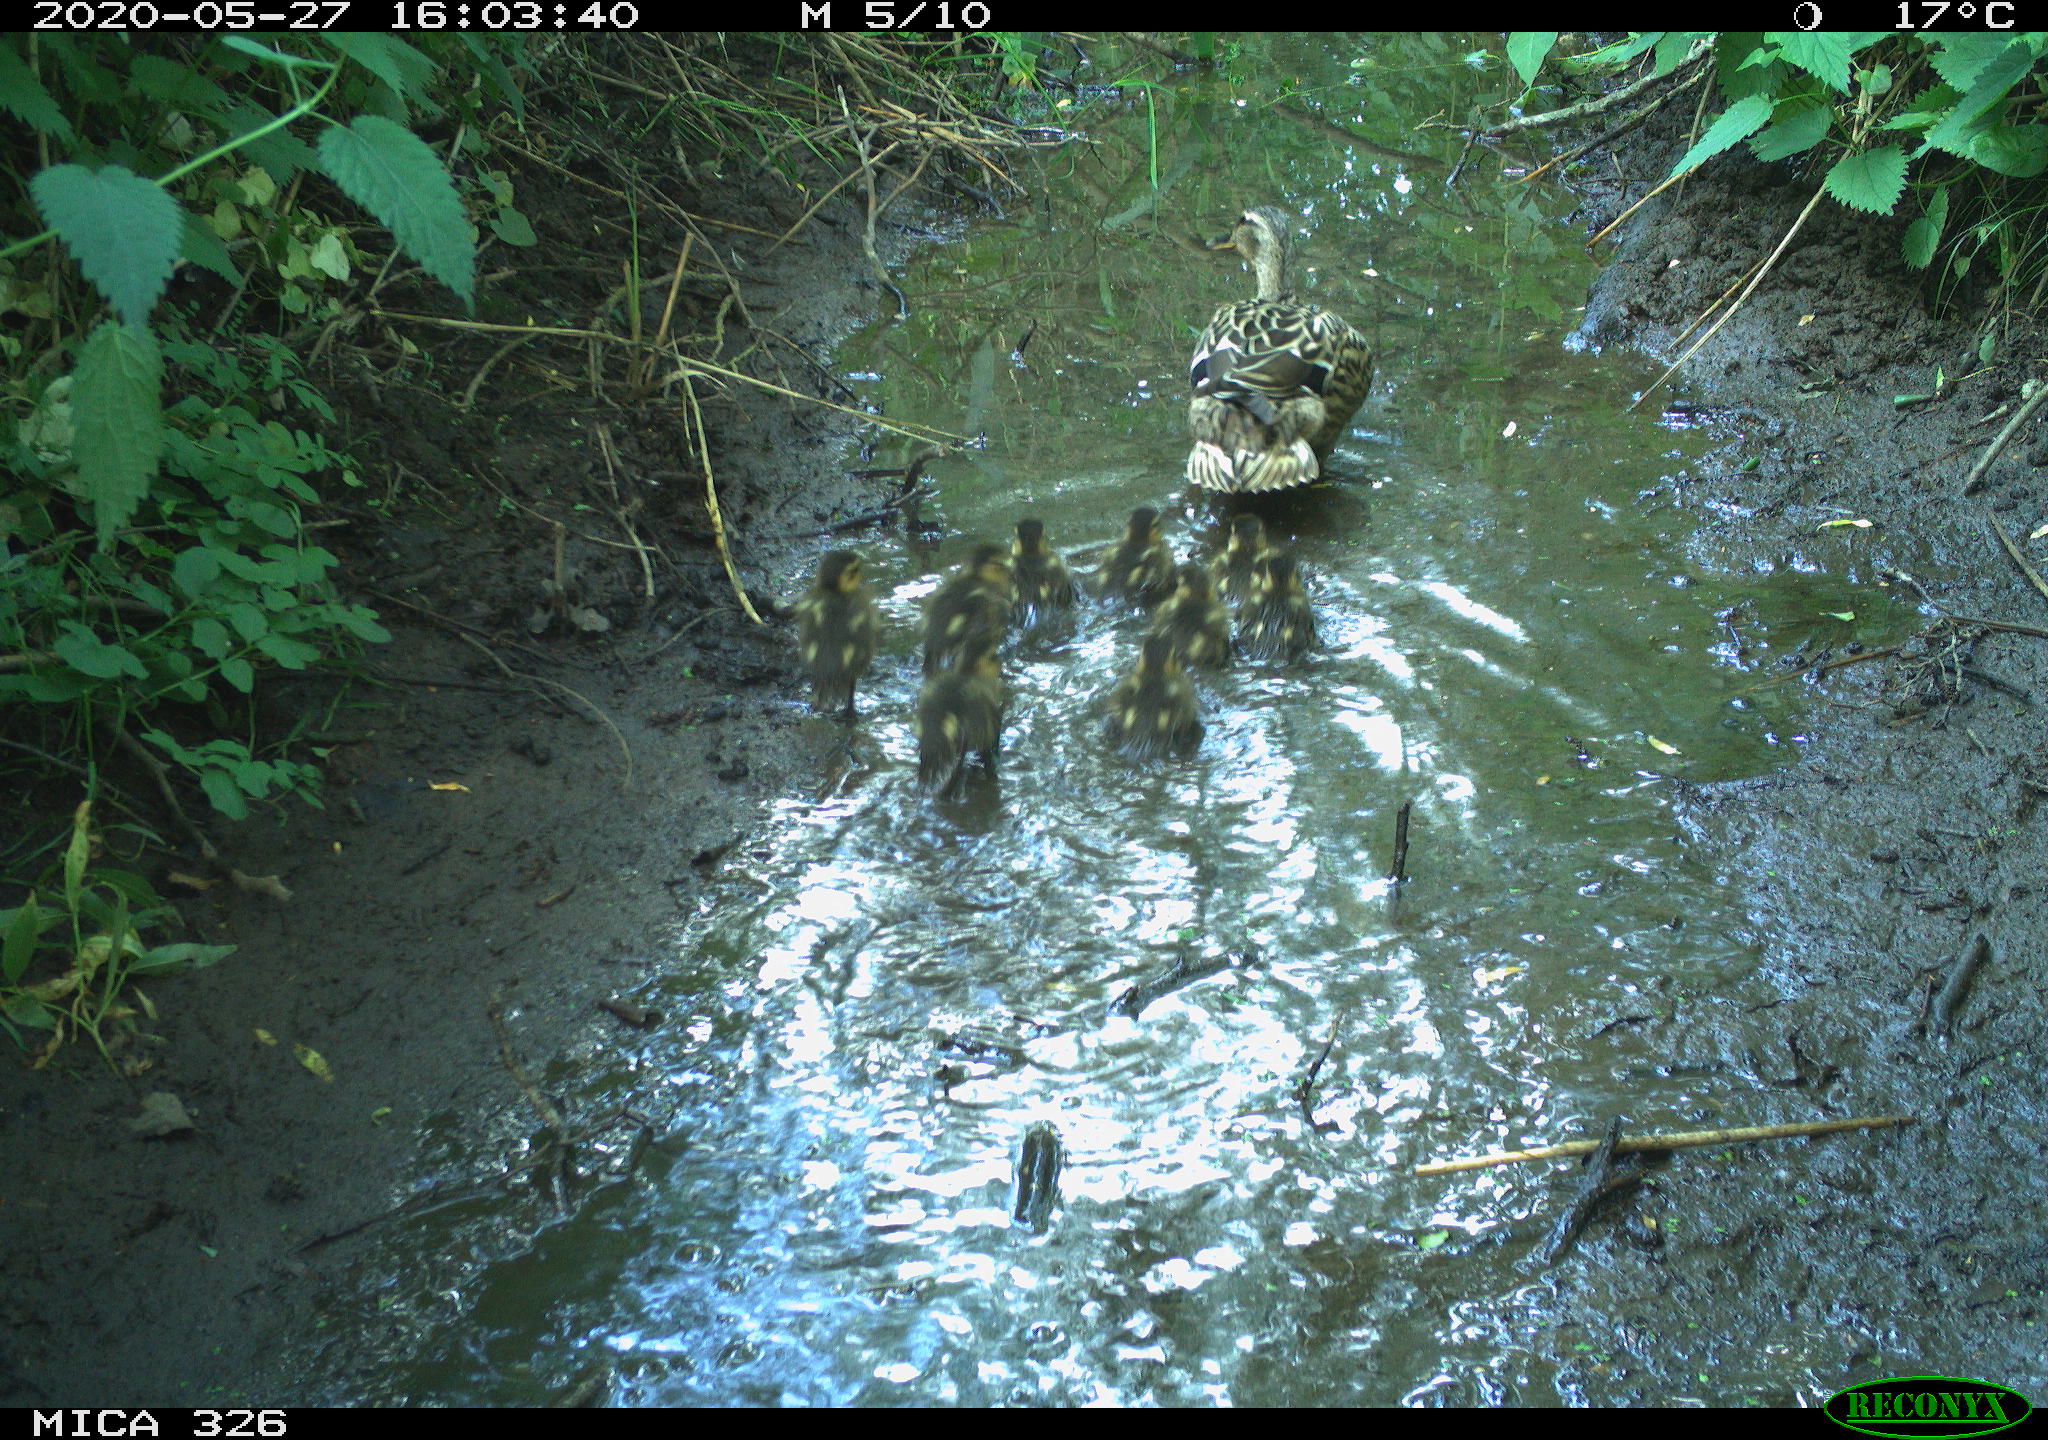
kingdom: Animalia
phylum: Chordata
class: Aves
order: Anseriformes
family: Anatidae
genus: Anas
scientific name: Anas platyrhynchos
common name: Mallard
